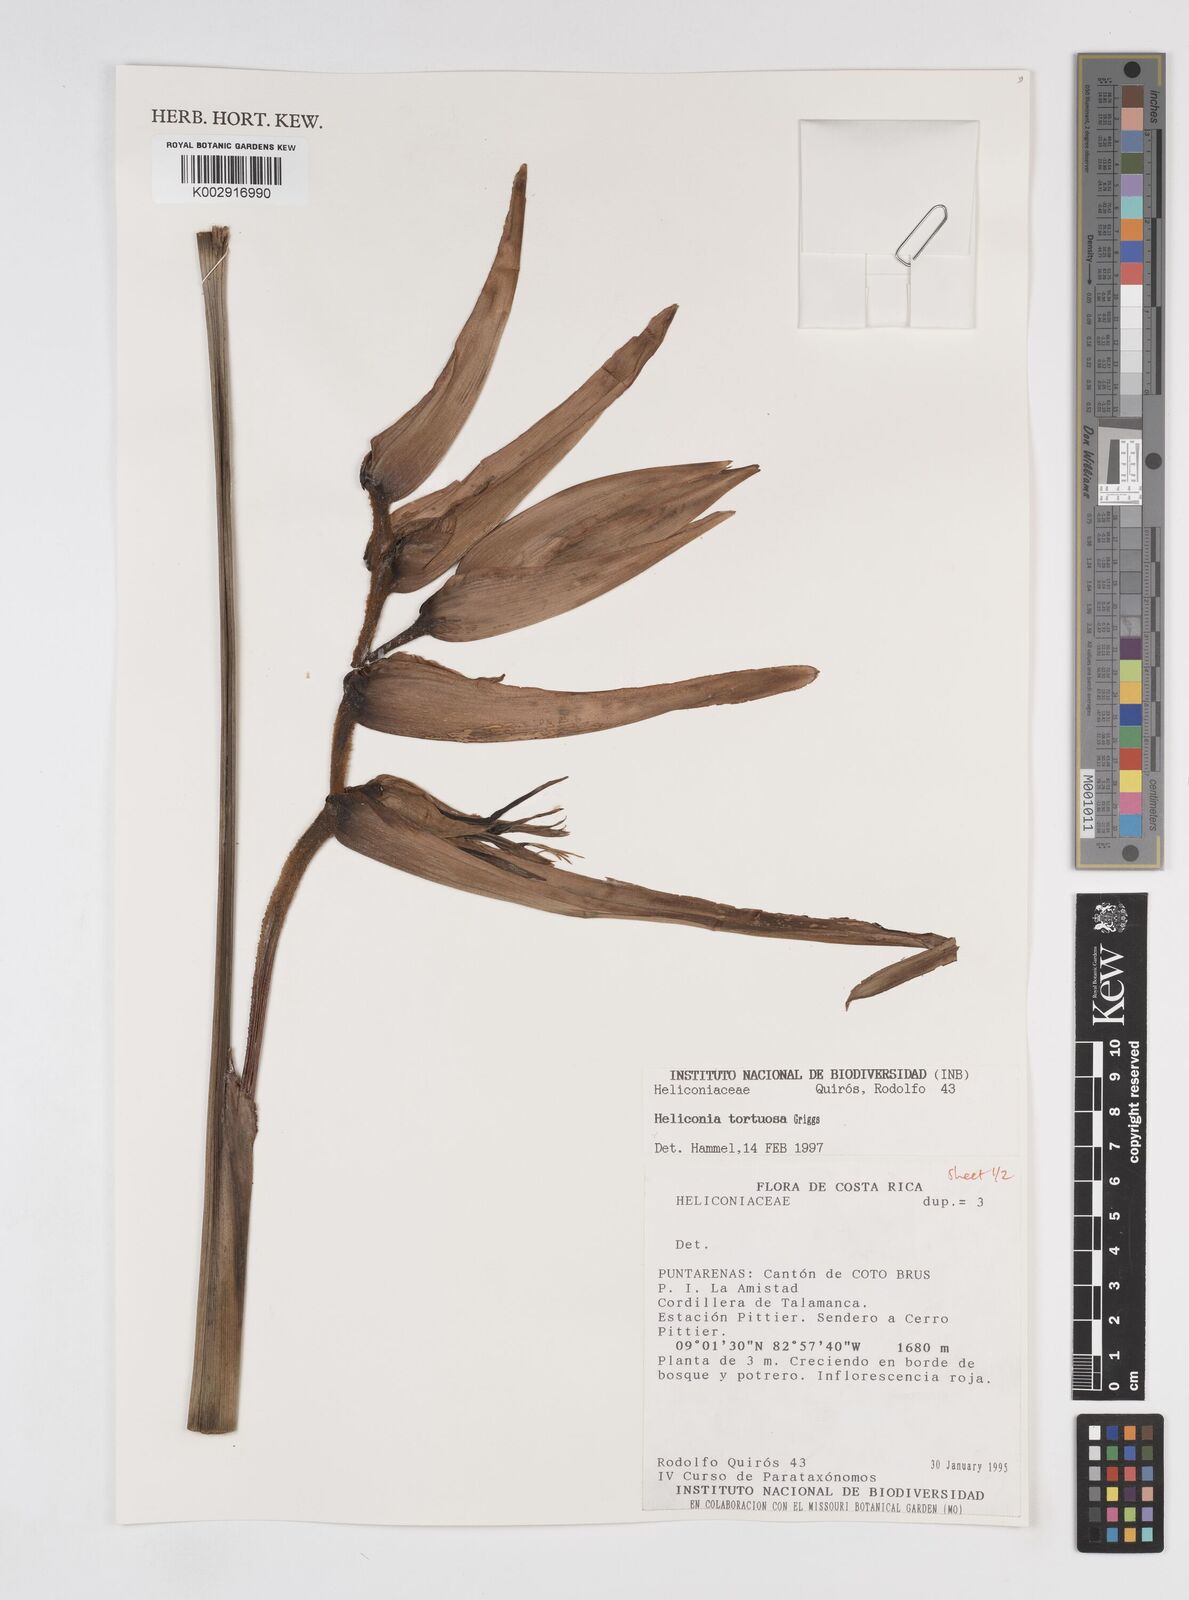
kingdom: Plantae
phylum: Tracheophyta
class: Liliopsida
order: Zingiberales
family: Heliconiaceae
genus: Heliconia
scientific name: Heliconia tortuosa
